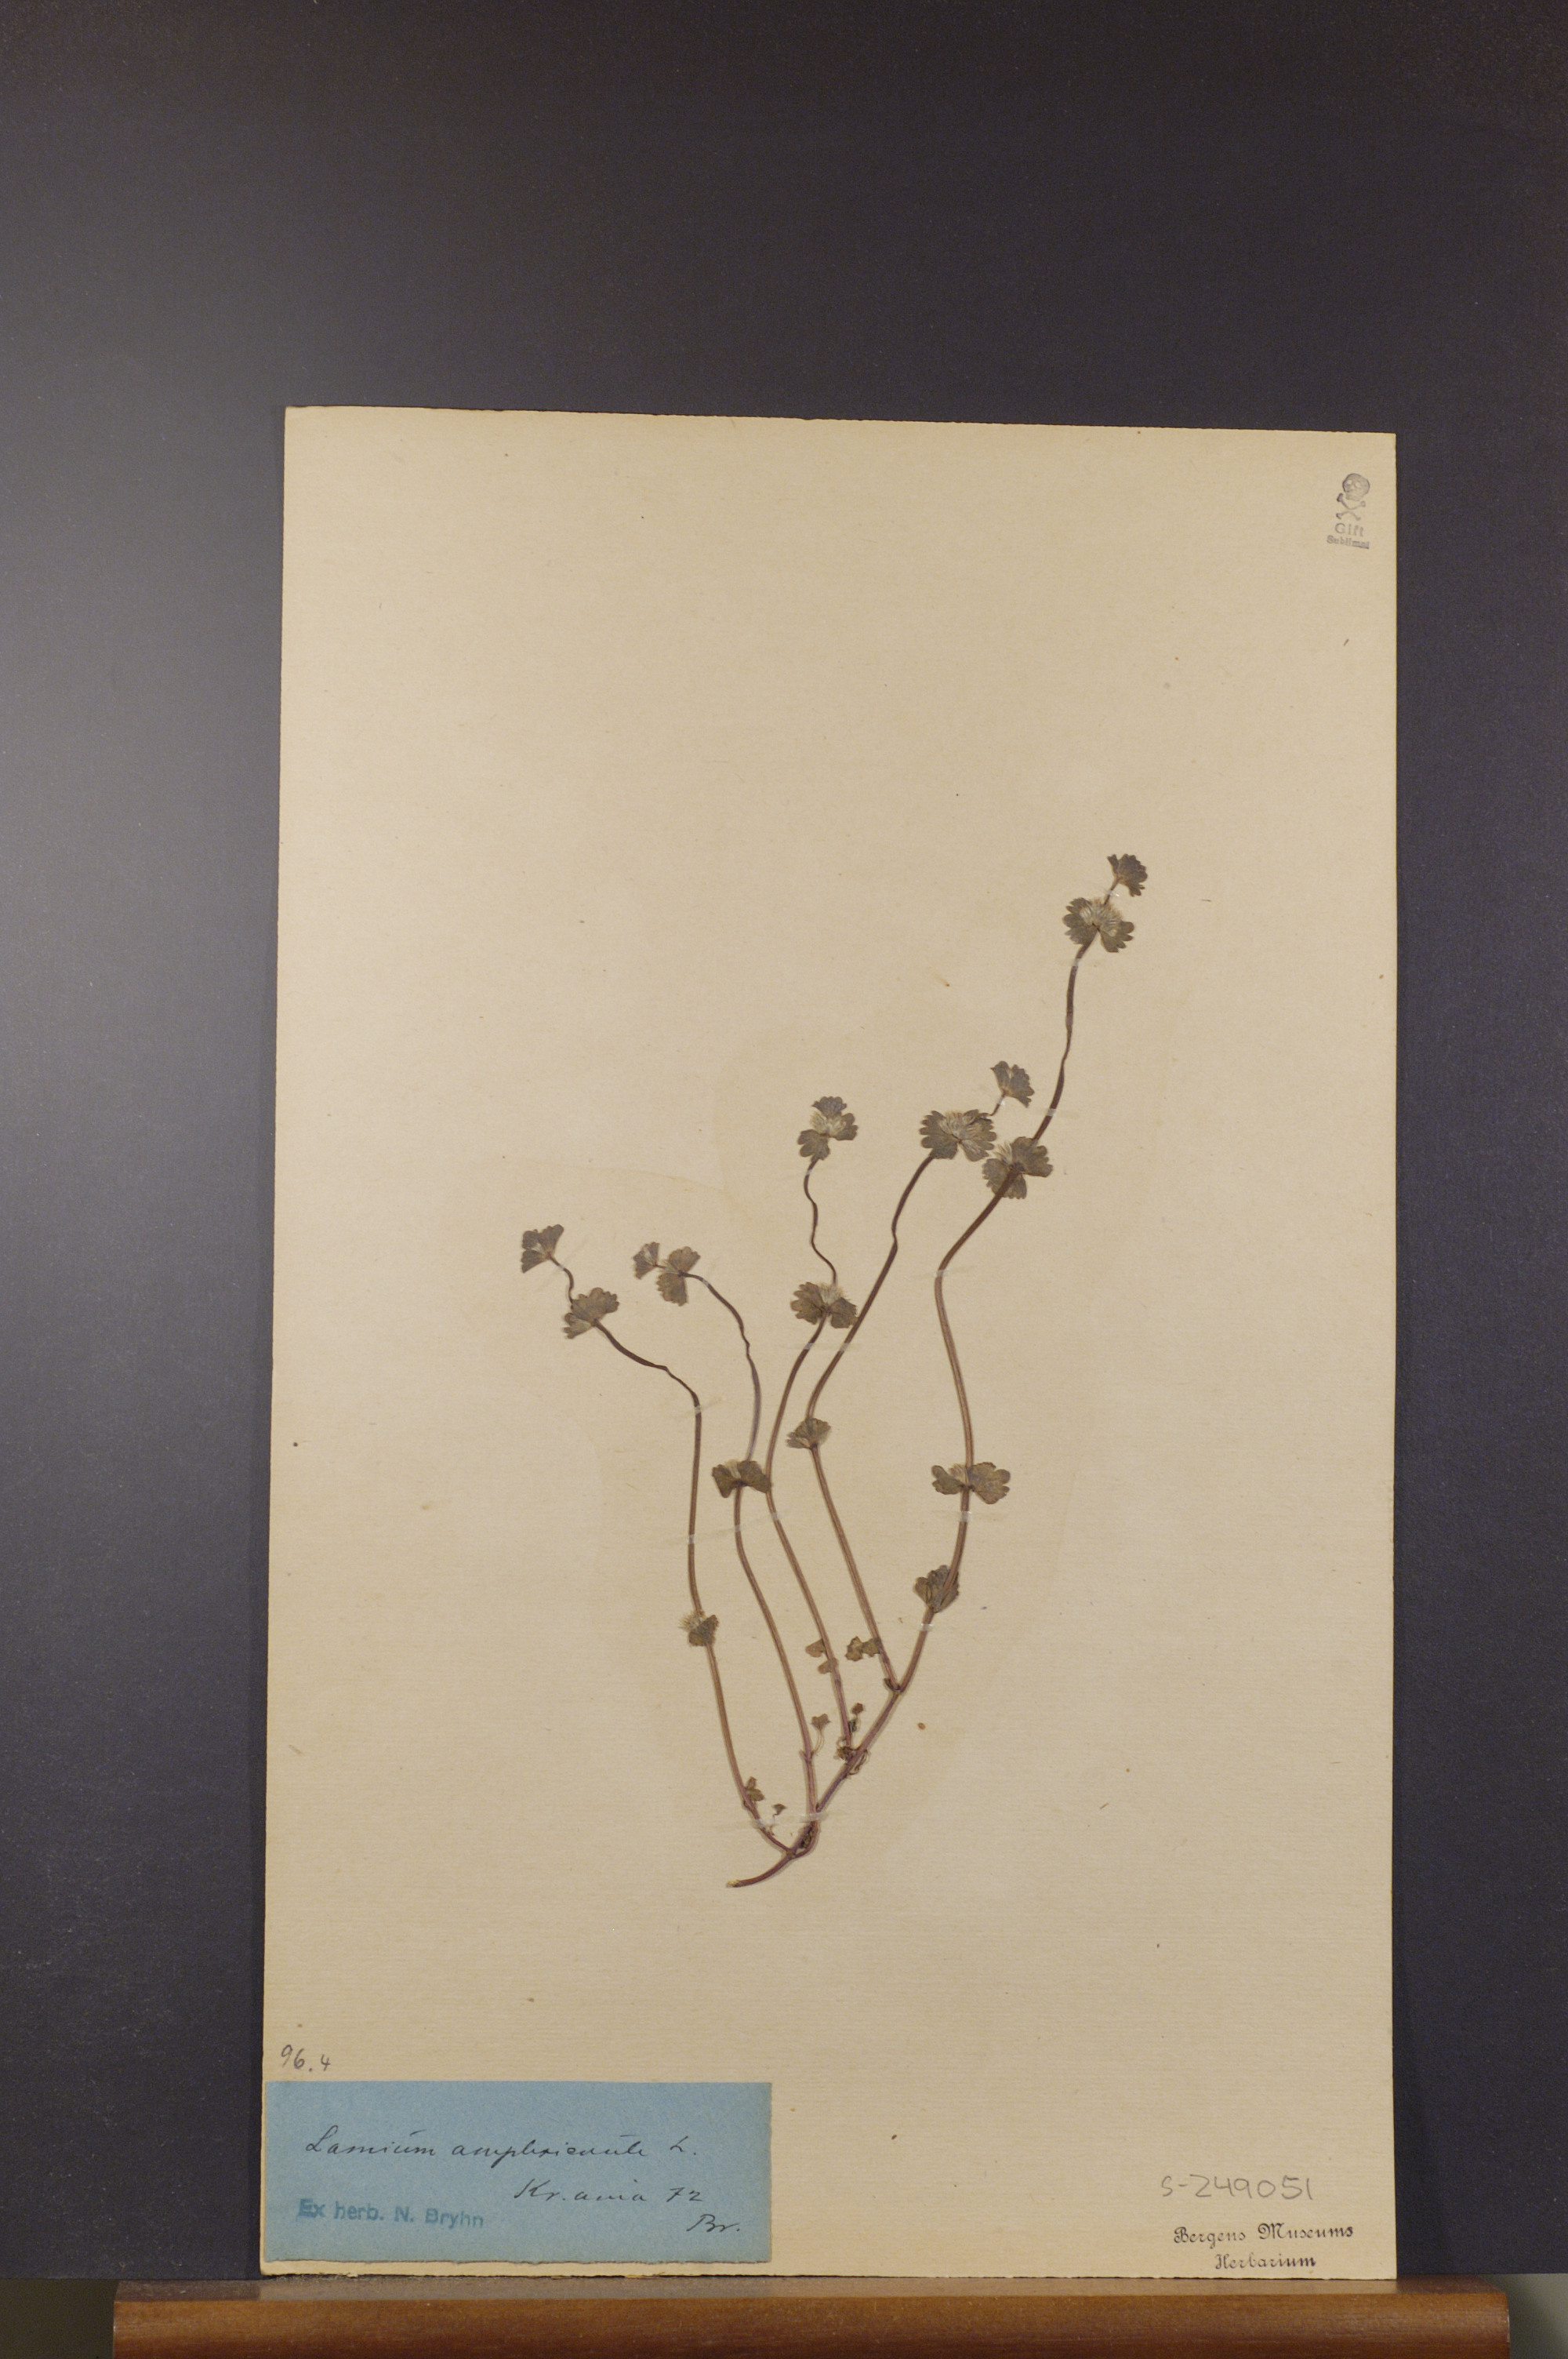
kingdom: Plantae
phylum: Tracheophyta
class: Magnoliopsida
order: Lamiales
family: Lamiaceae
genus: Lamium
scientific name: Lamium amplexicaule
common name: Henbit dead-nettle
